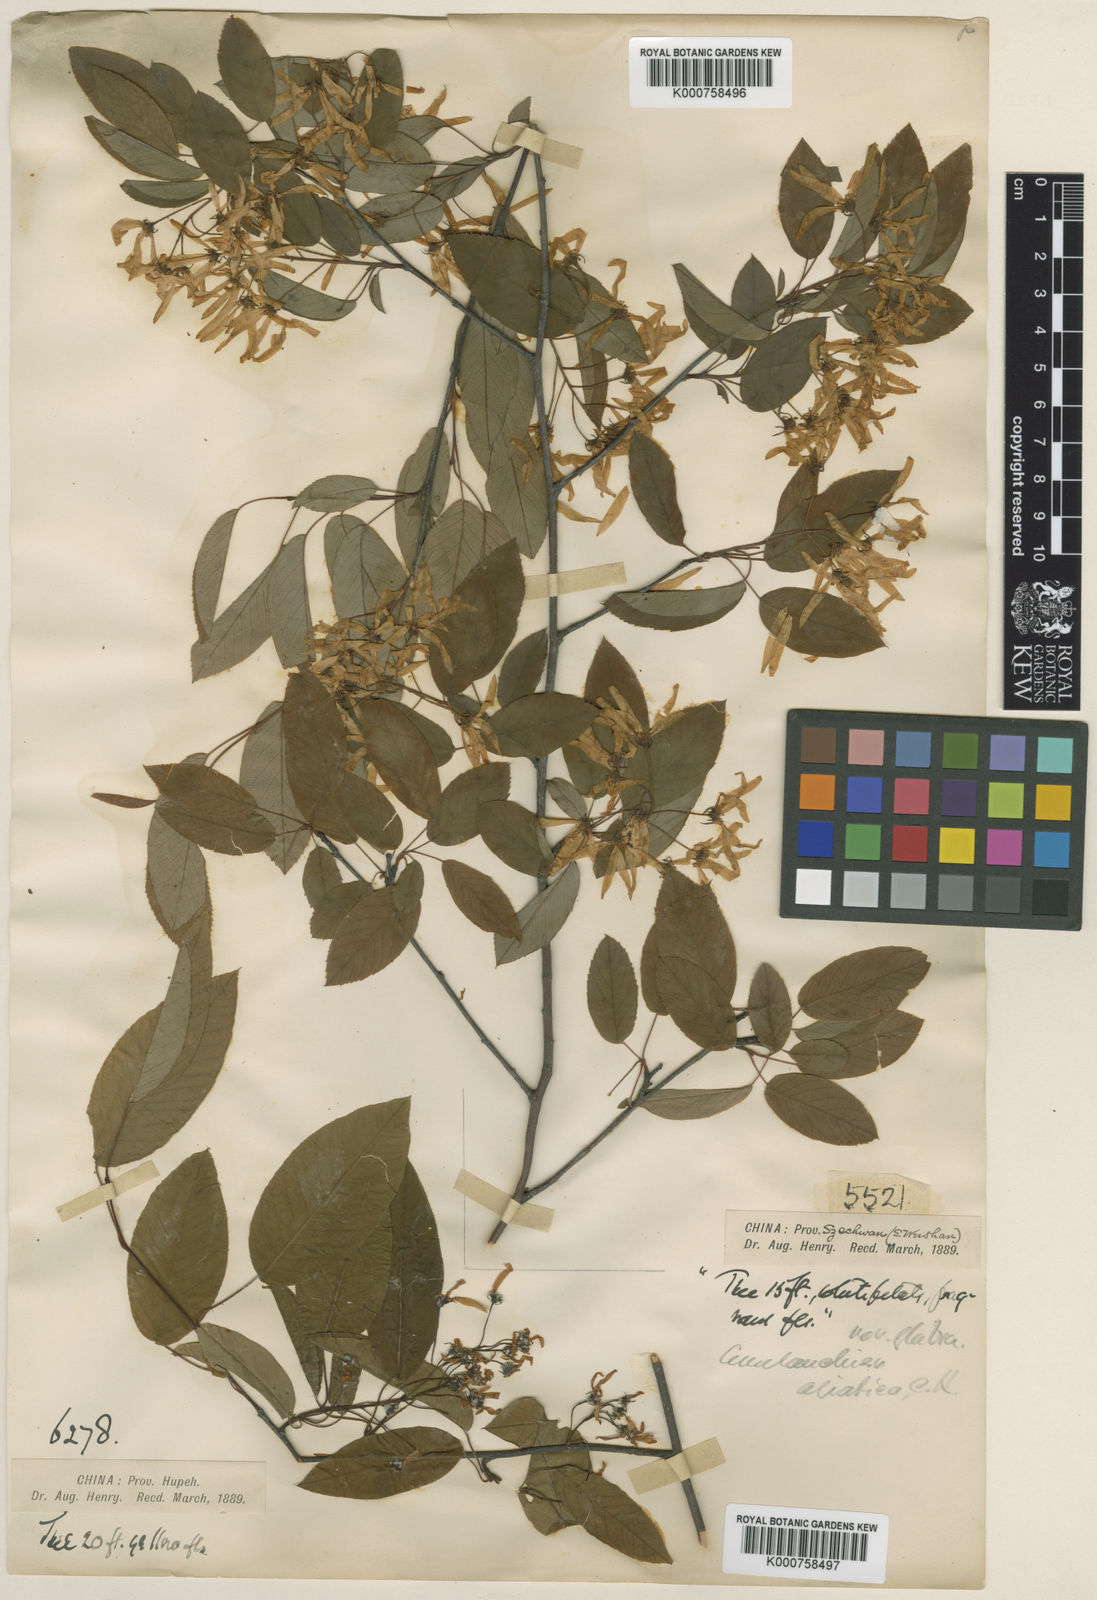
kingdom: Plantae
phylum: Tracheophyta
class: Magnoliopsida
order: Rosales
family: Rosaceae
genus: Amelanchier
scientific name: Amelanchier
